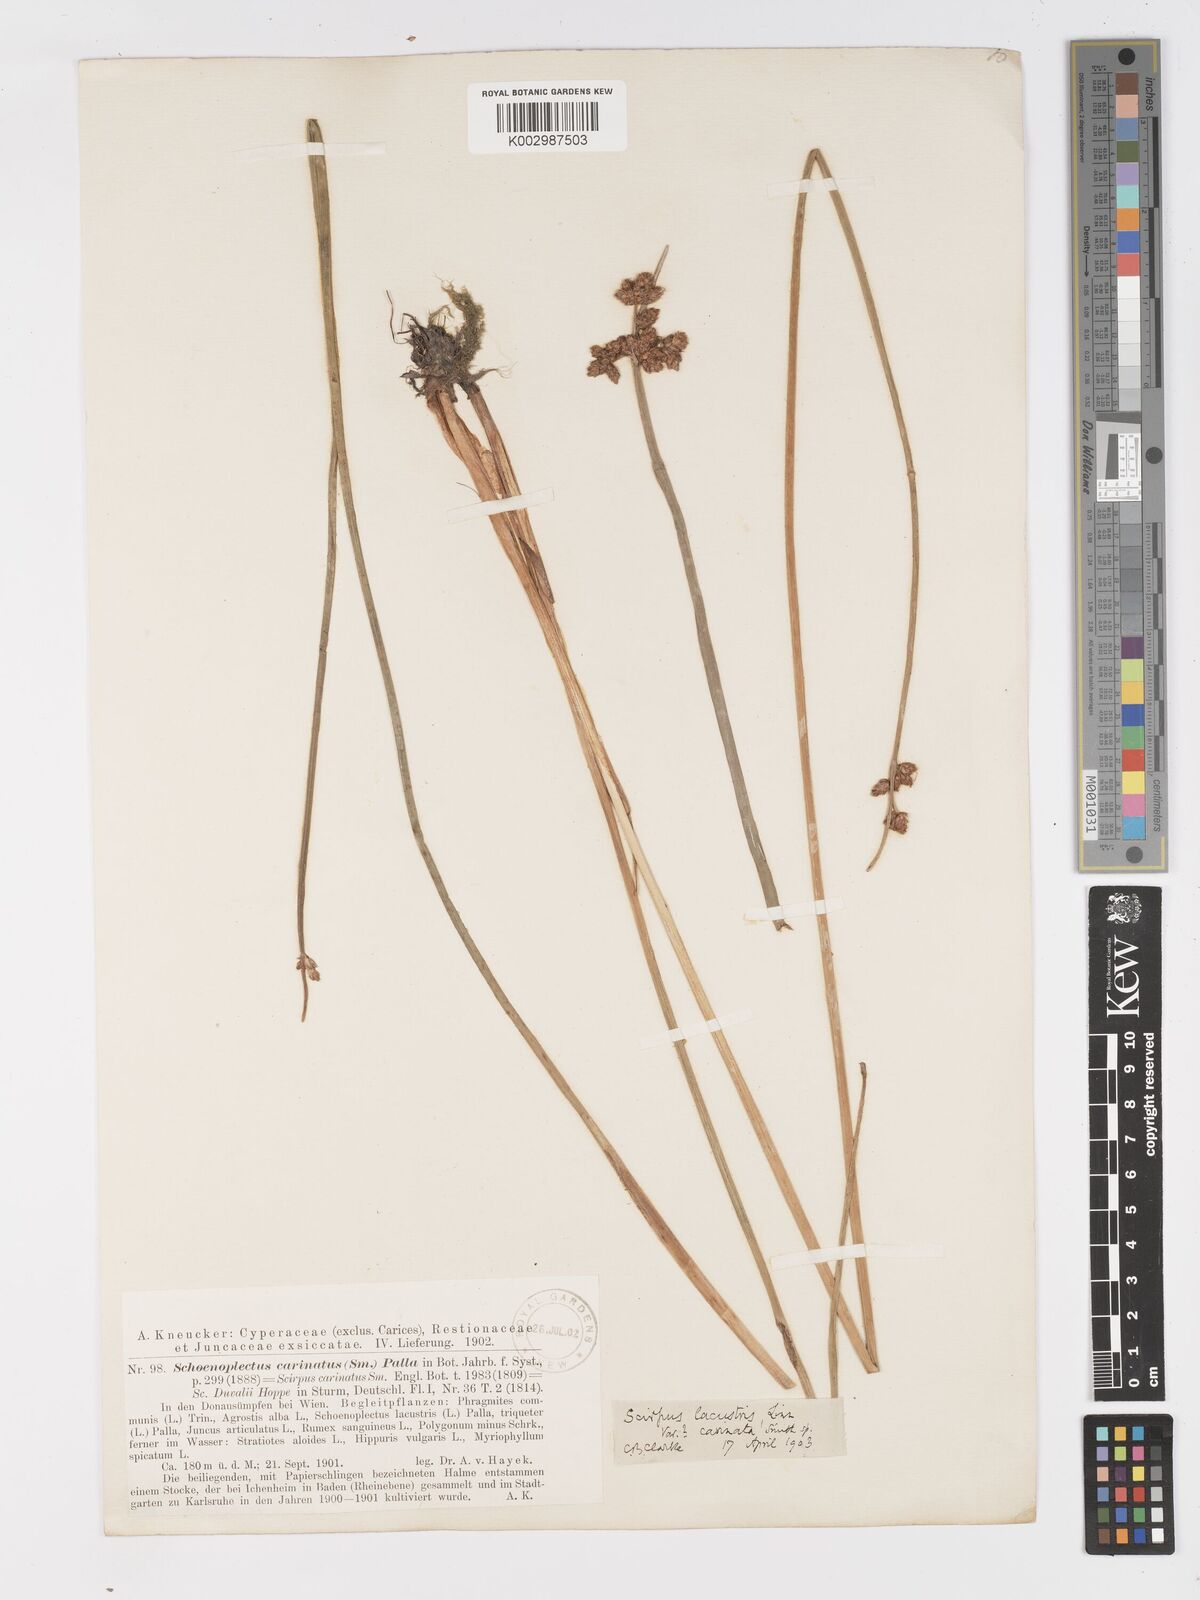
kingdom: Plantae
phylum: Tracheophyta
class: Liliopsida
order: Poales
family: Cyperaceae
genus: Schoenoplectus
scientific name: Schoenoplectus lacustris
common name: Common club-rush
